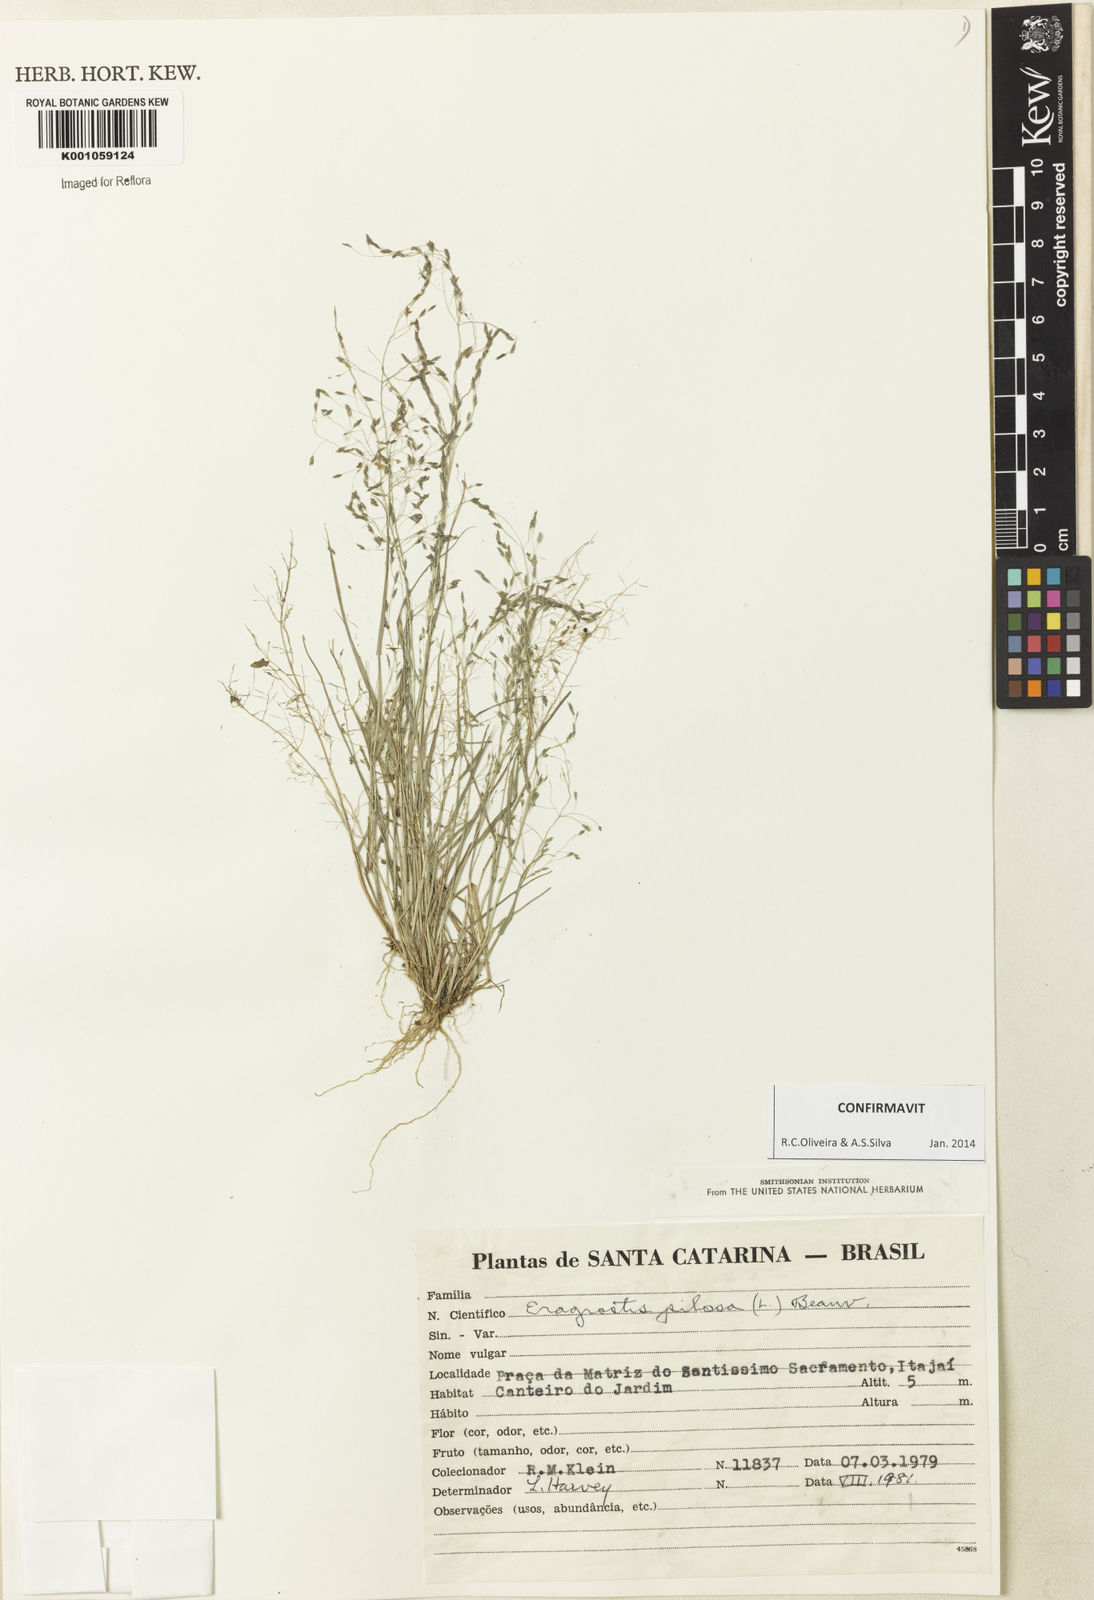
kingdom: Plantae
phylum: Tracheophyta
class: Liliopsida
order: Poales
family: Poaceae
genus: Eragrostis
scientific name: Eragrostis pilosa
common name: Indian lovegrass
